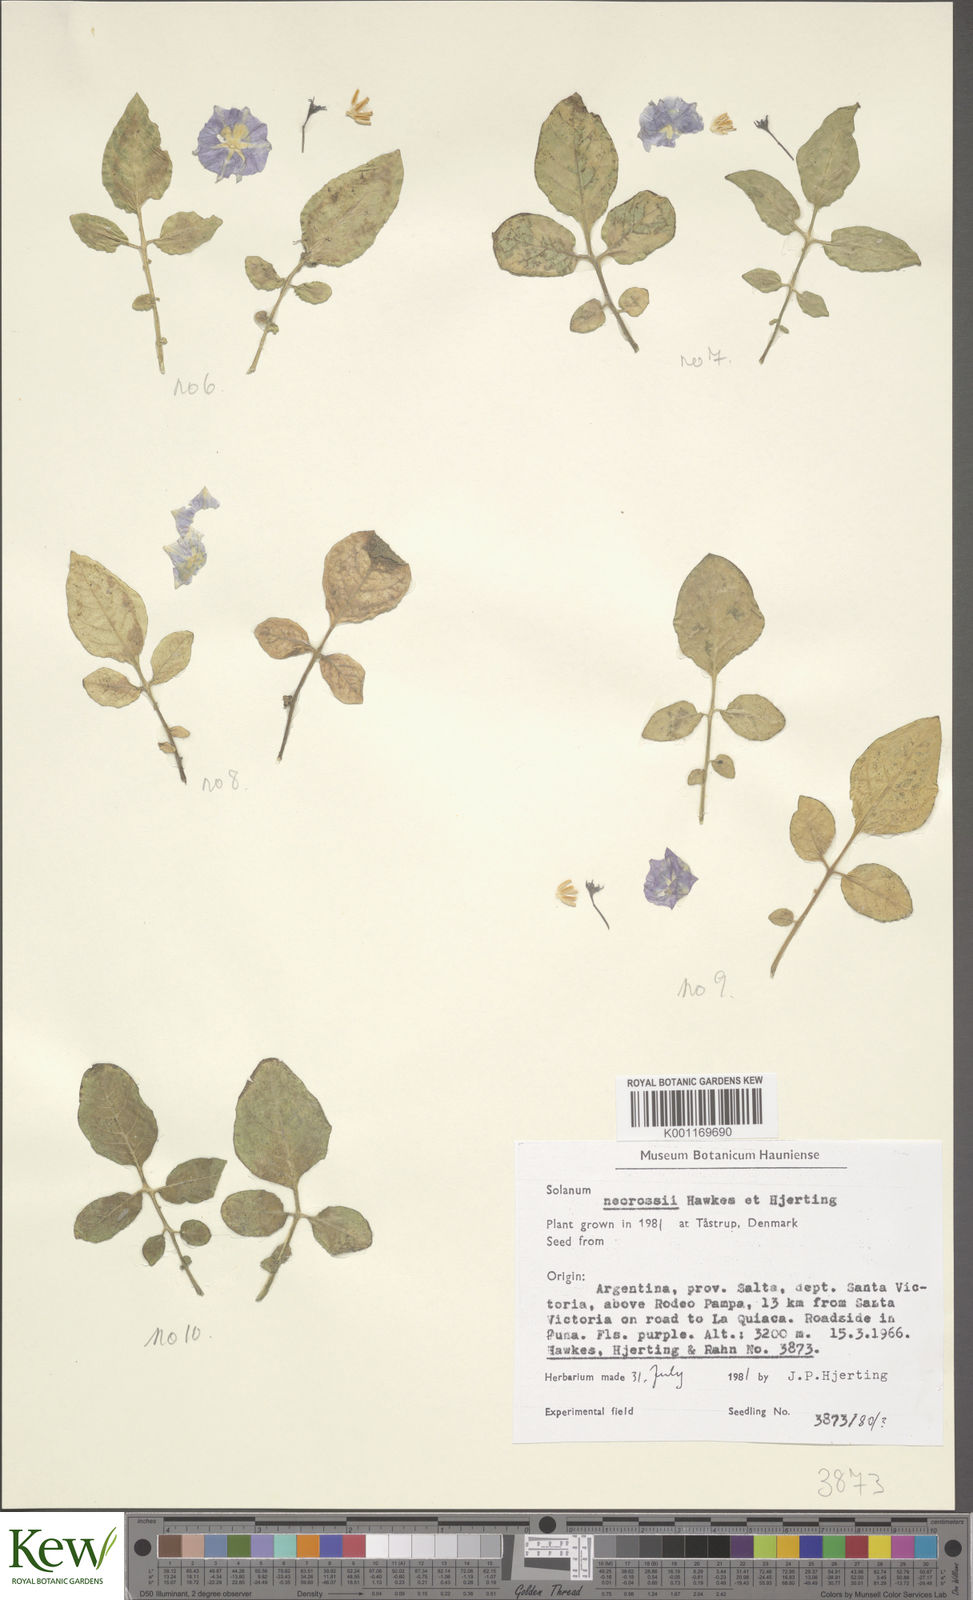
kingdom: Plantae
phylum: Tracheophyta
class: Magnoliopsida
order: Solanales
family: Solanaceae
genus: Solanum
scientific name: Solanum neorossii
